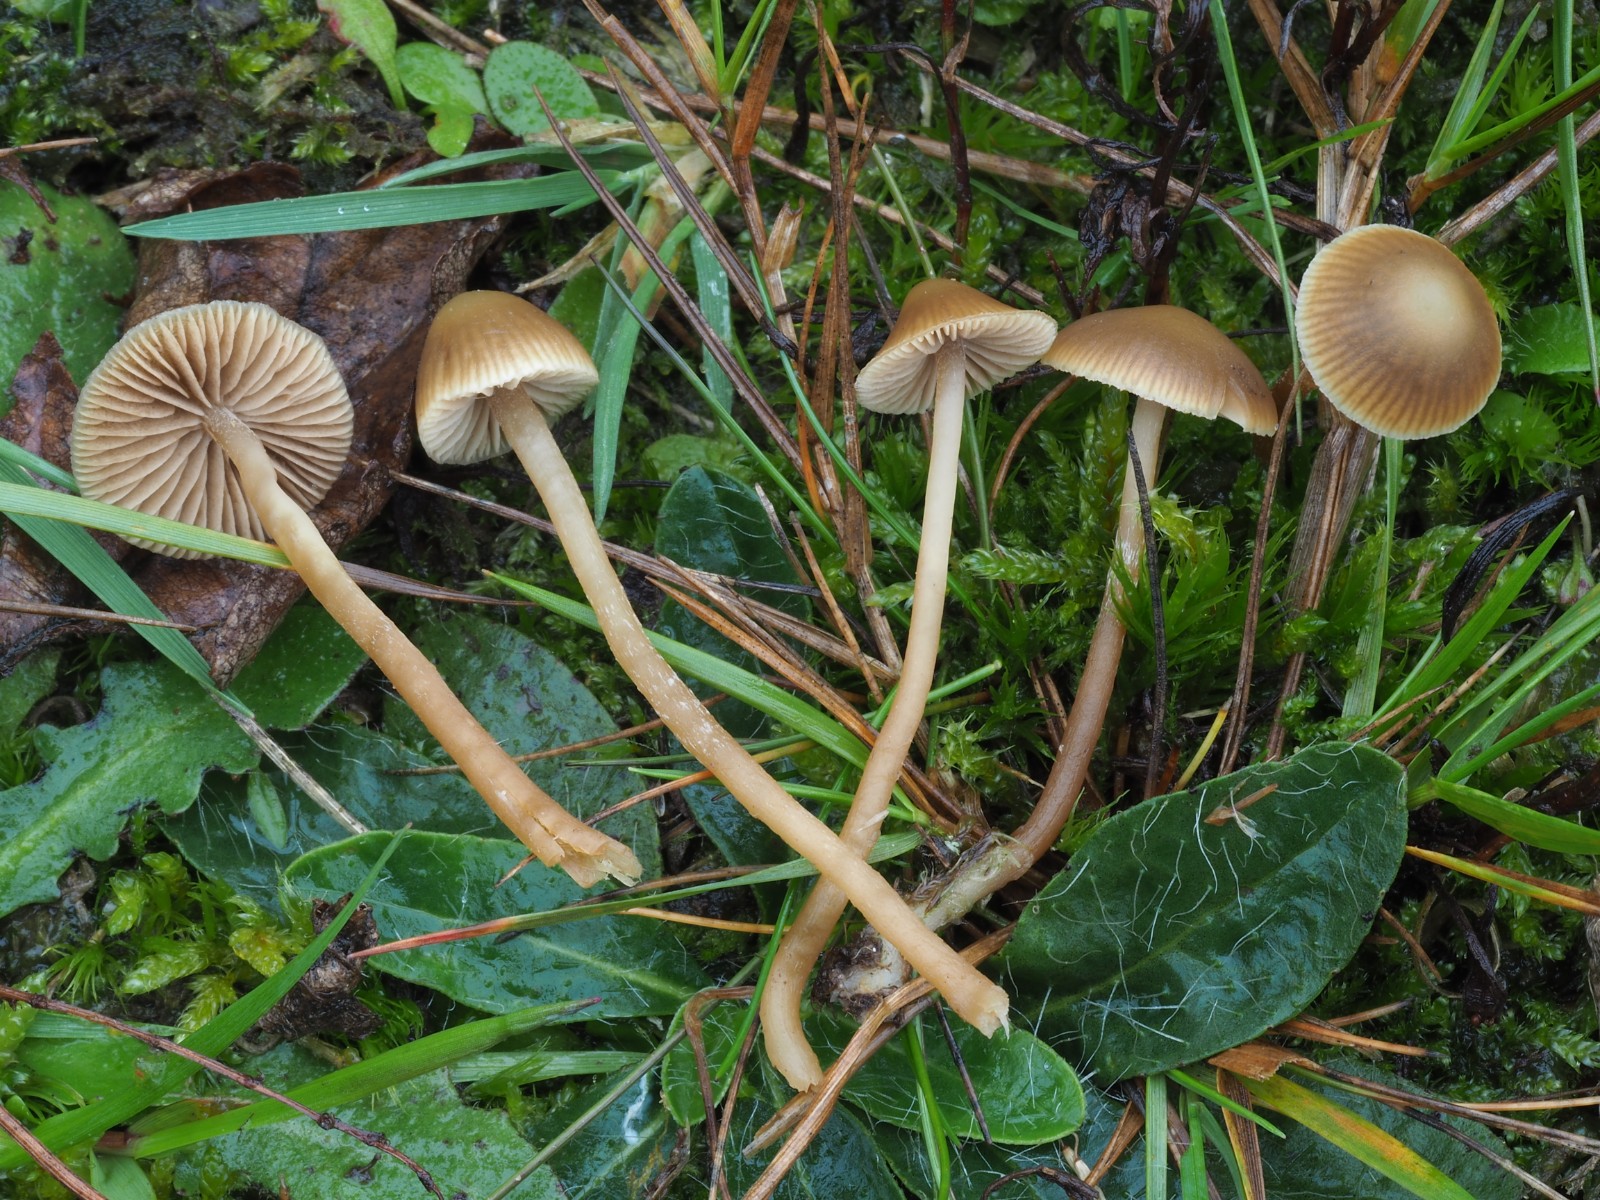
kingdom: Fungi
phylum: Basidiomycota
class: Agaricomycetes
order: Agaricales
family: Hymenogastraceae
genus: Galerina
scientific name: Galerina mniophila
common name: olivengul hjelmhat
